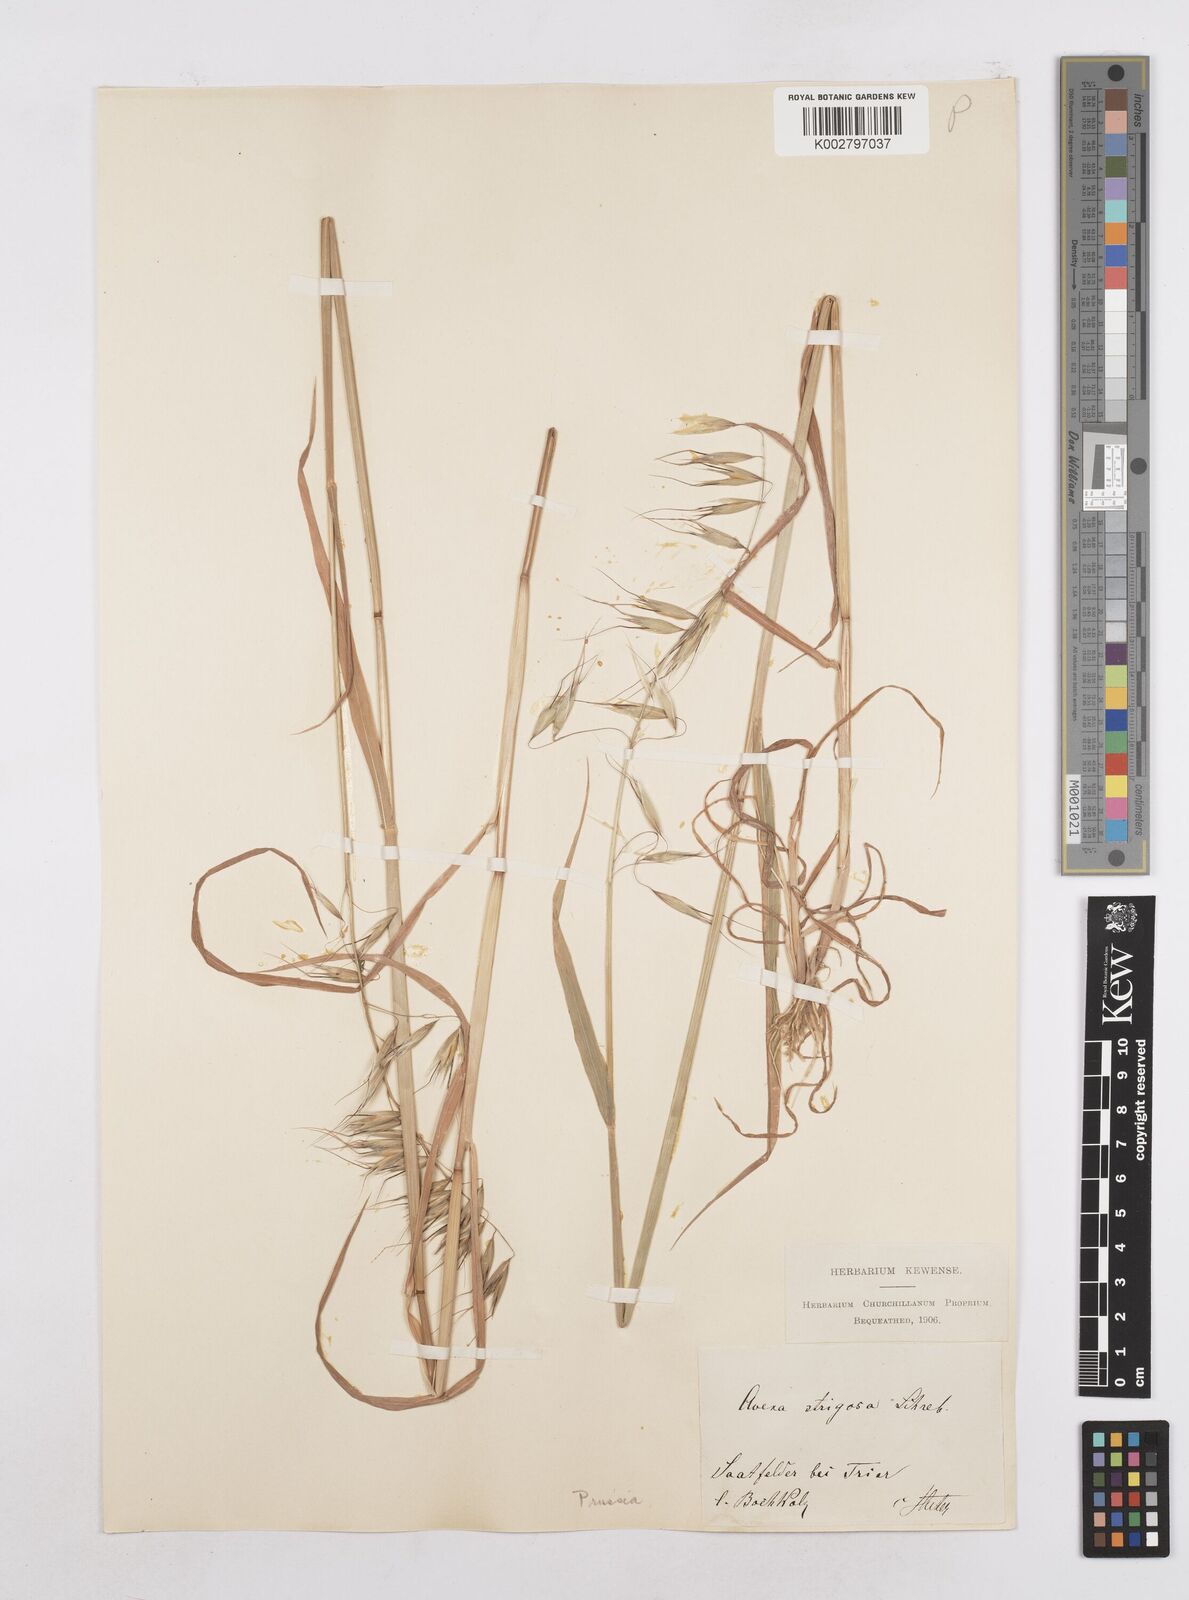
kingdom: Plantae
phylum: Tracheophyta
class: Liliopsida
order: Poales
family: Poaceae
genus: Avena
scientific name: Avena strigosa
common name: Bristle oat
